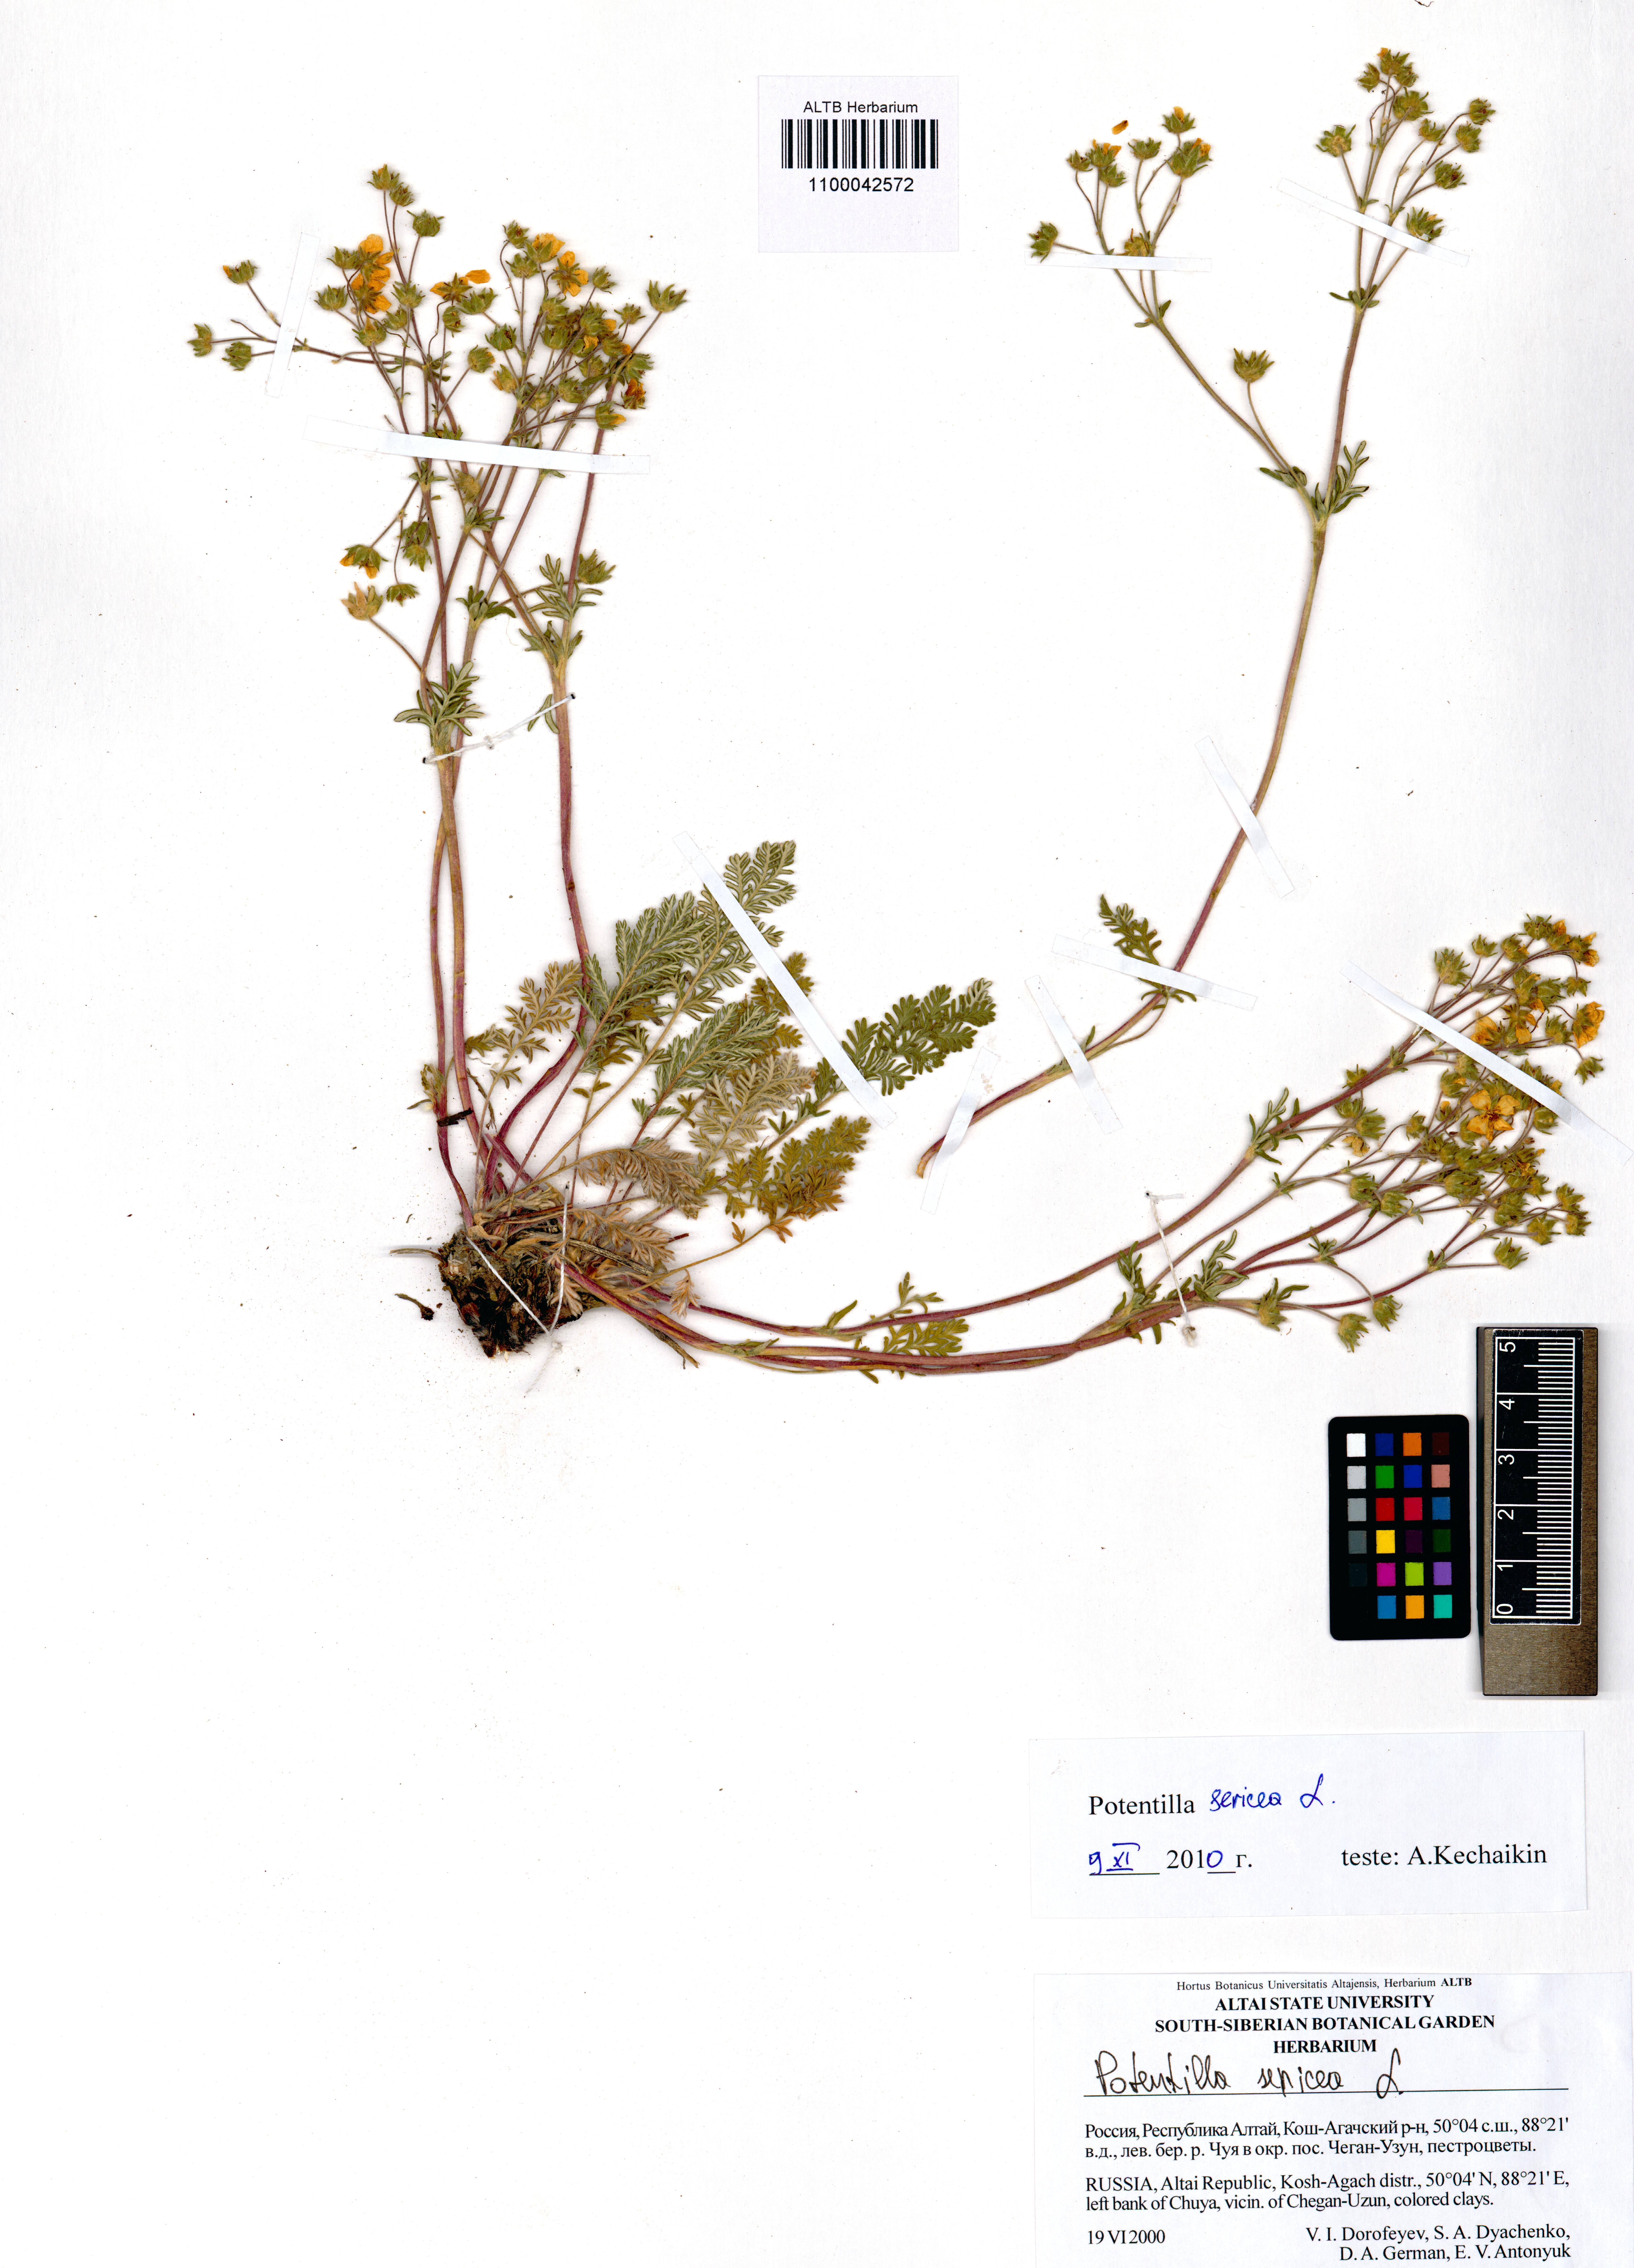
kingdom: Plantae
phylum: Tracheophyta
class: Magnoliopsida
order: Rosales
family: Rosaceae
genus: Potentilla
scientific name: Potentilla sericea
